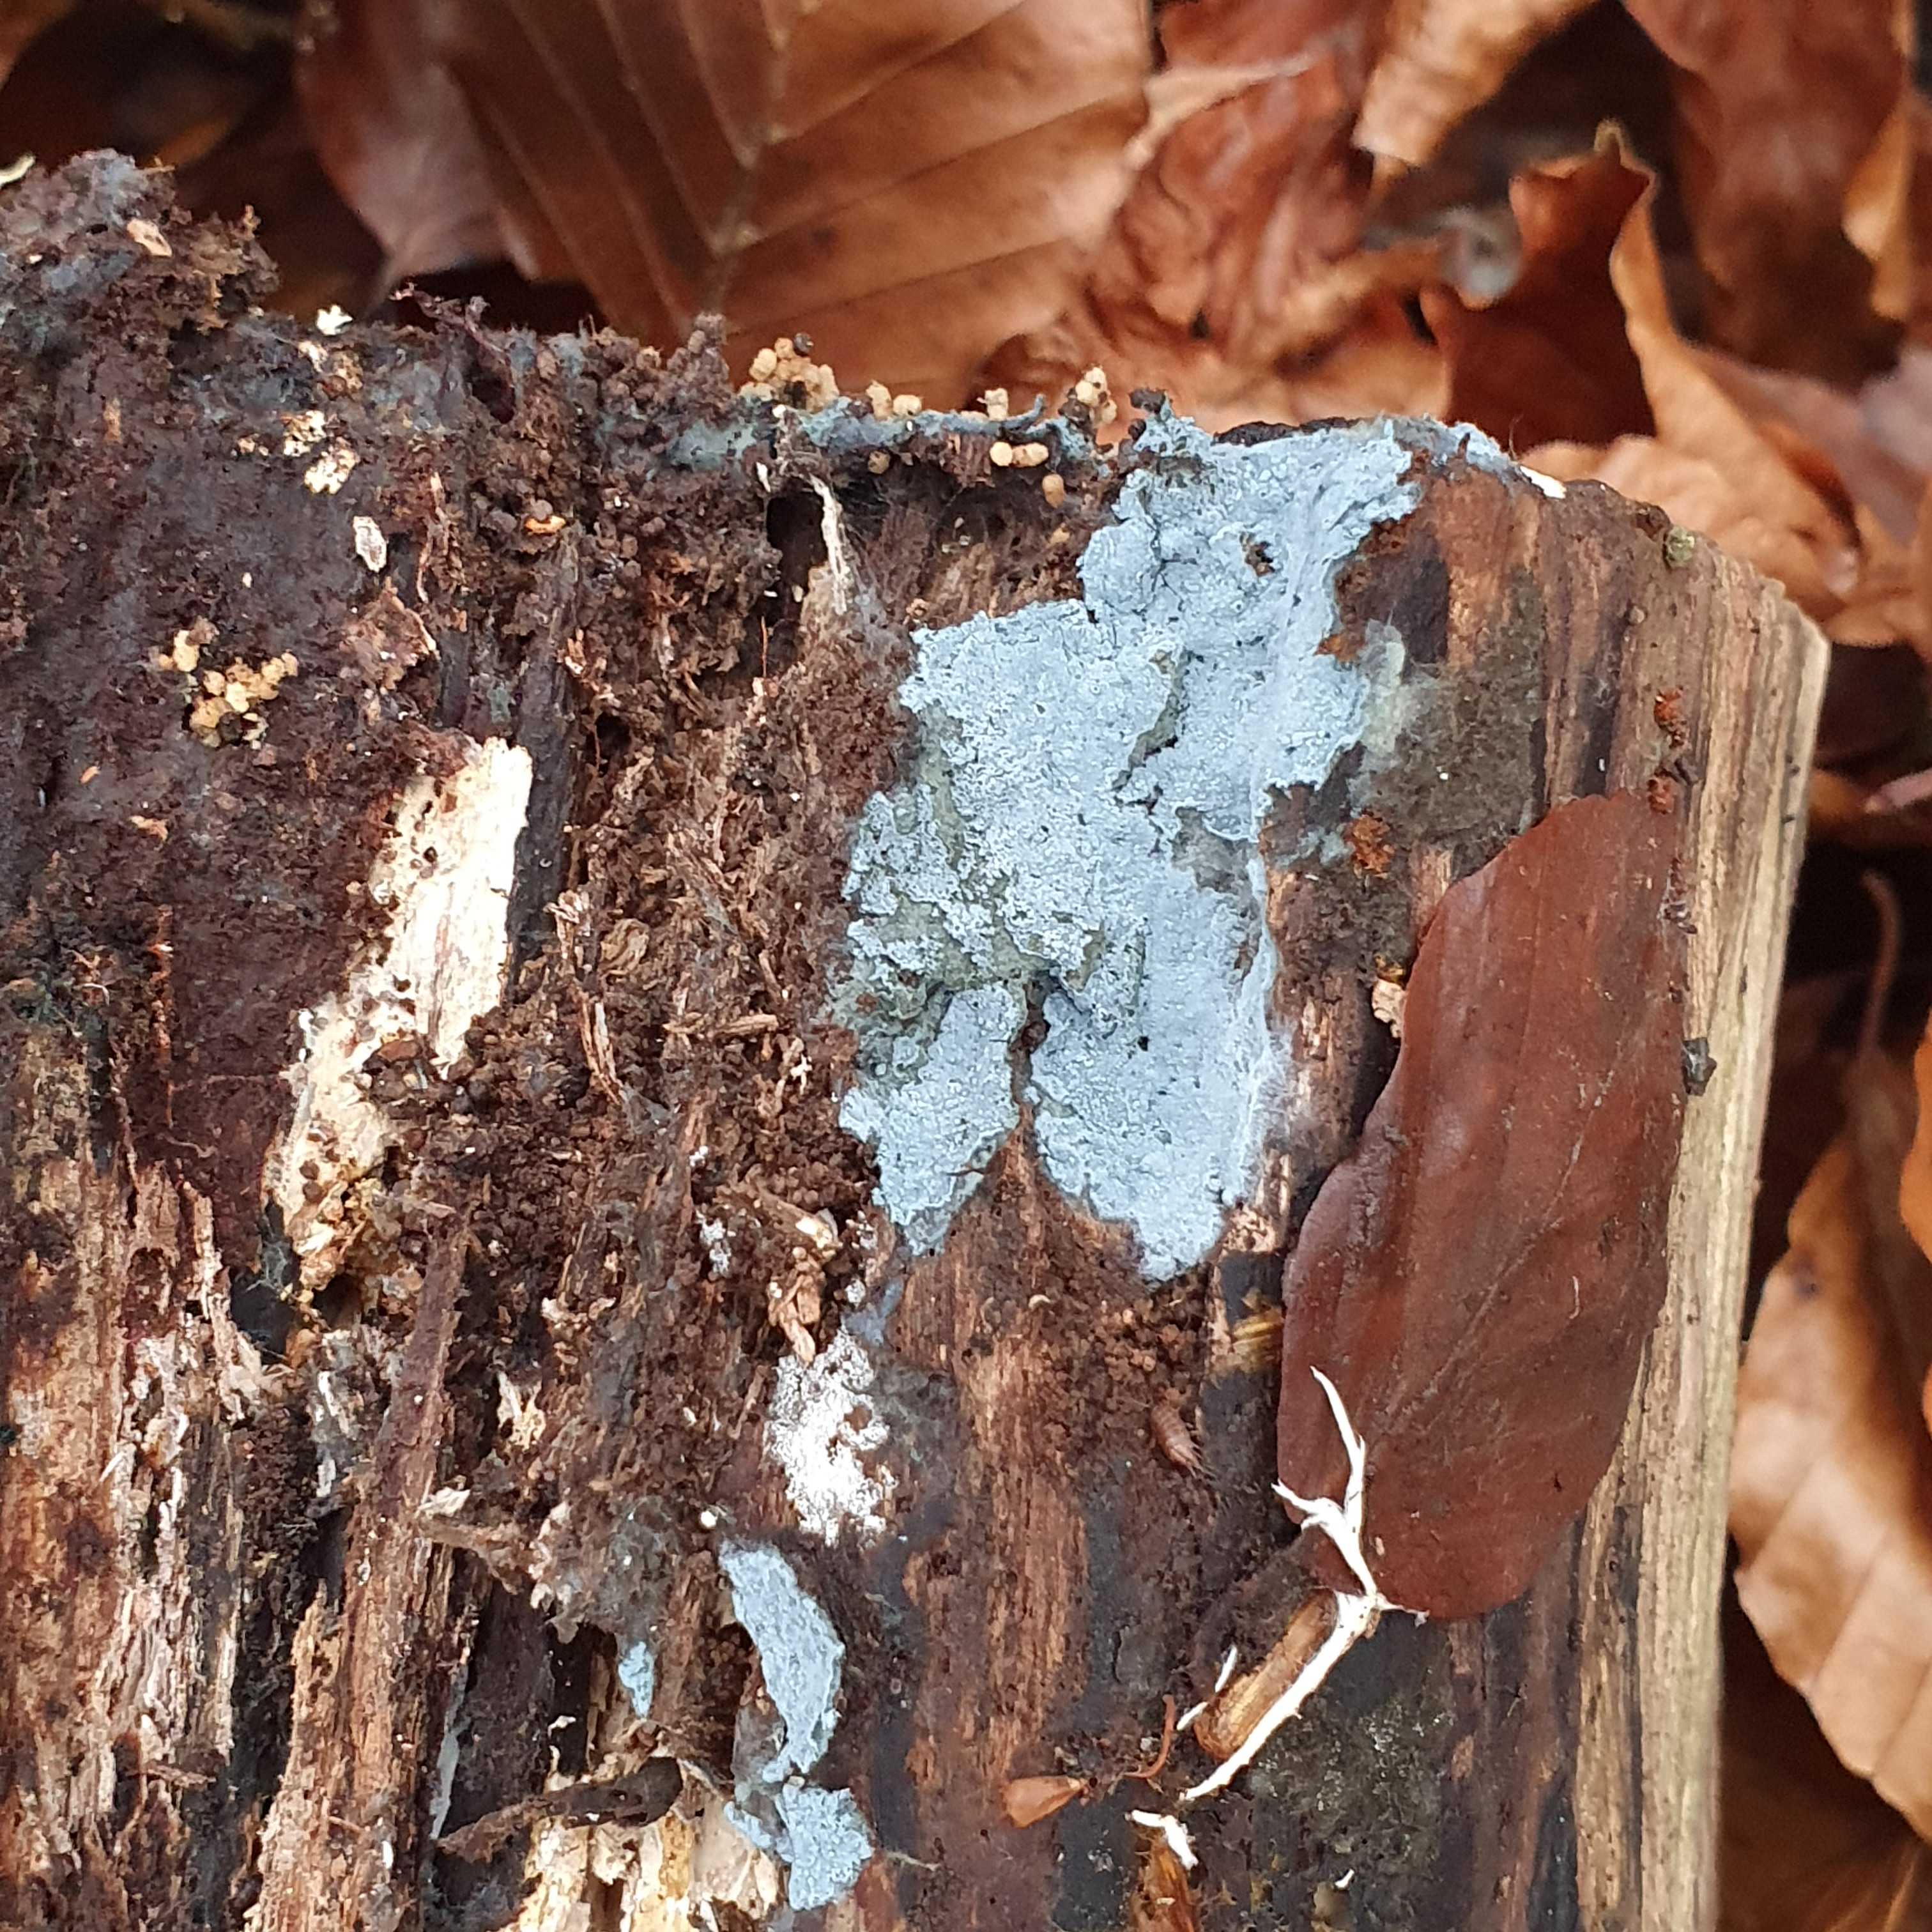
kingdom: Fungi
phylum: Basidiomycota
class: Agaricomycetes
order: Atheliales
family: Atheliaceae
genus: Byssocorticium
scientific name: Byssocorticium atrovirens
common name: blå førnehinde
